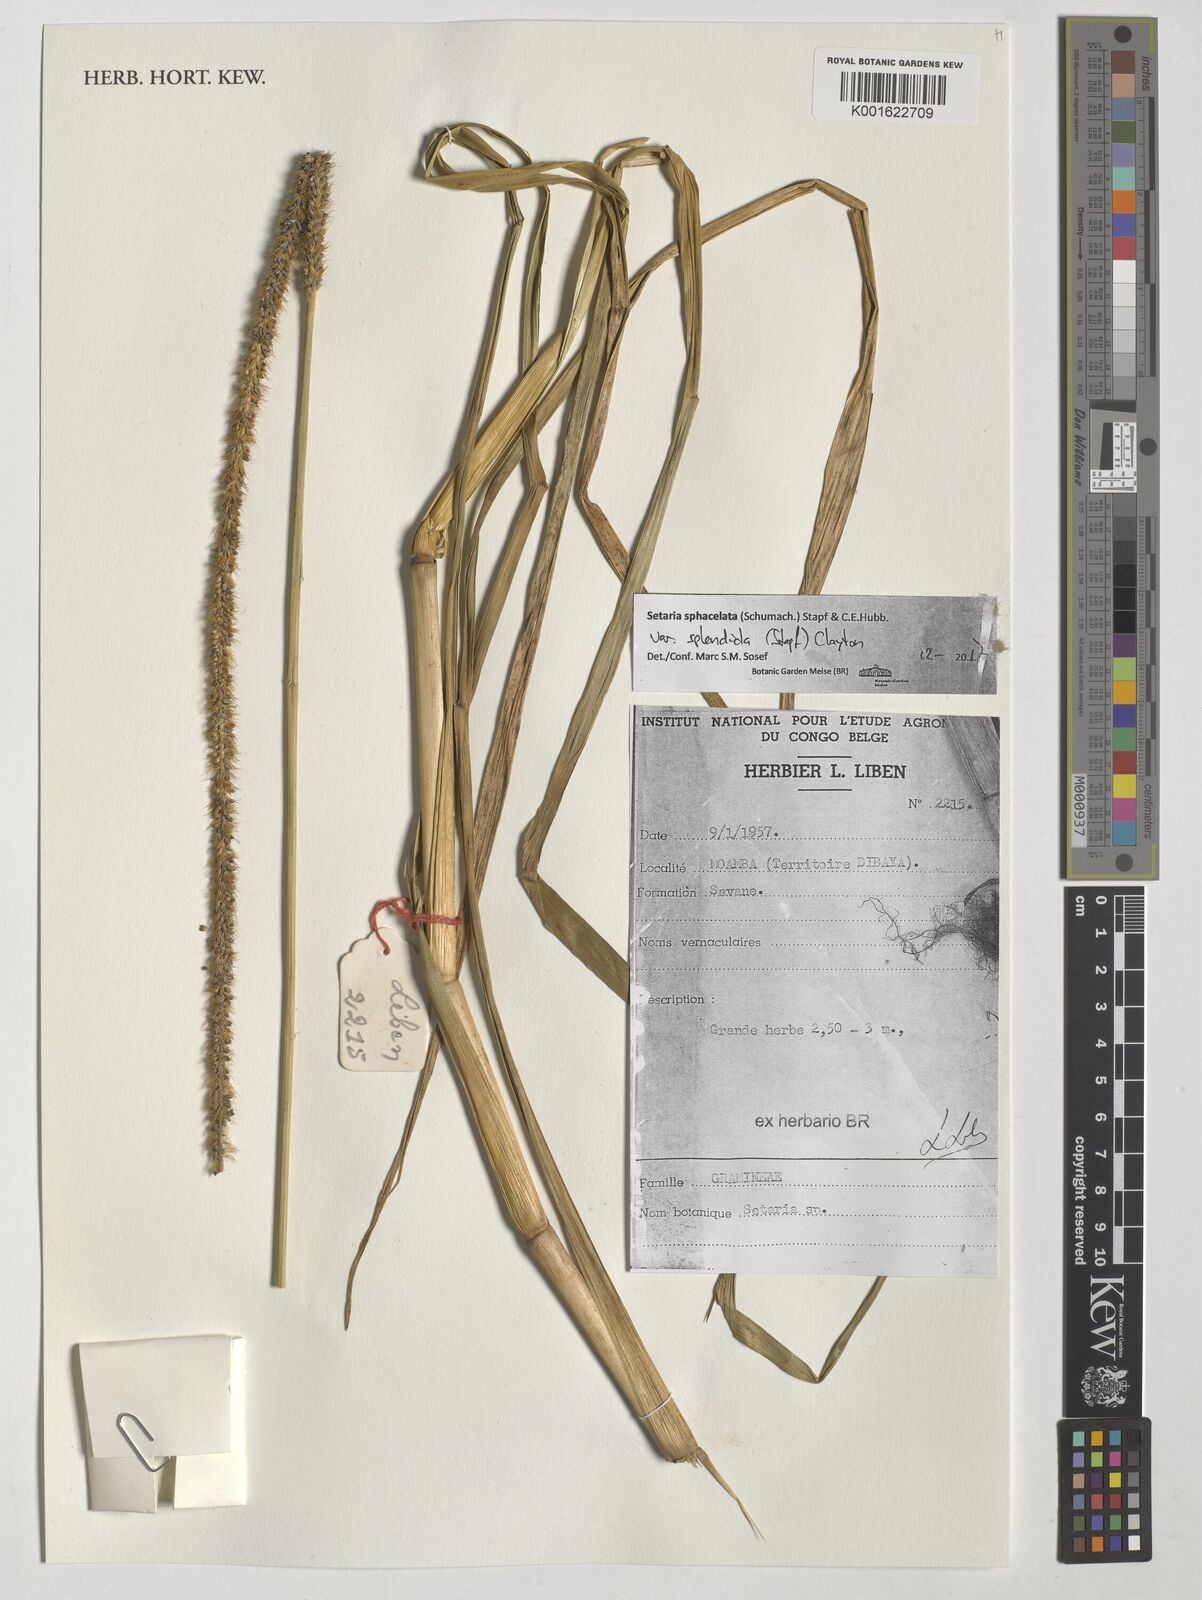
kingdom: Plantae
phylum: Tracheophyta
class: Liliopsida
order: Poales
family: Poaceae
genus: Setaria
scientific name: Setaria sphacelata
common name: African bristlegrass
